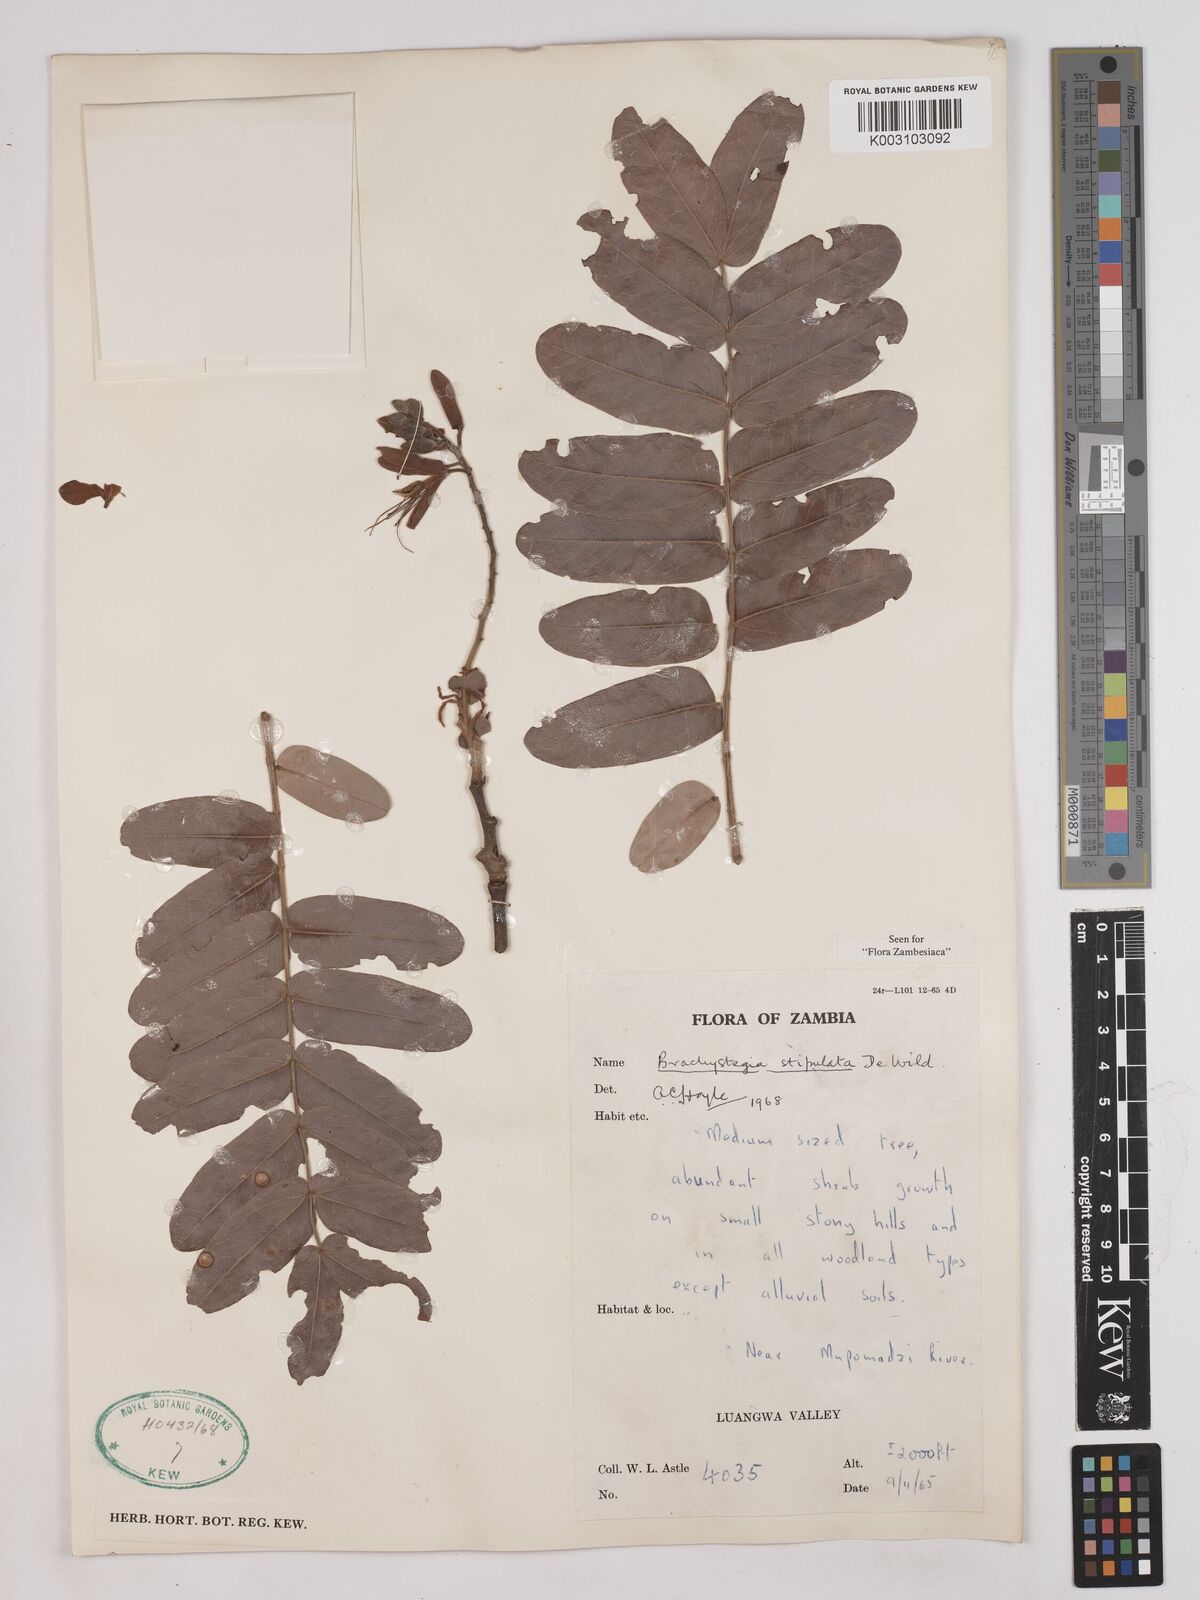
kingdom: Plantae
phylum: Tracheophyta
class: Magnoliopsida
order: Fabales
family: Fabaceae
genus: Brachystegia
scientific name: Brachystegia stipulata
